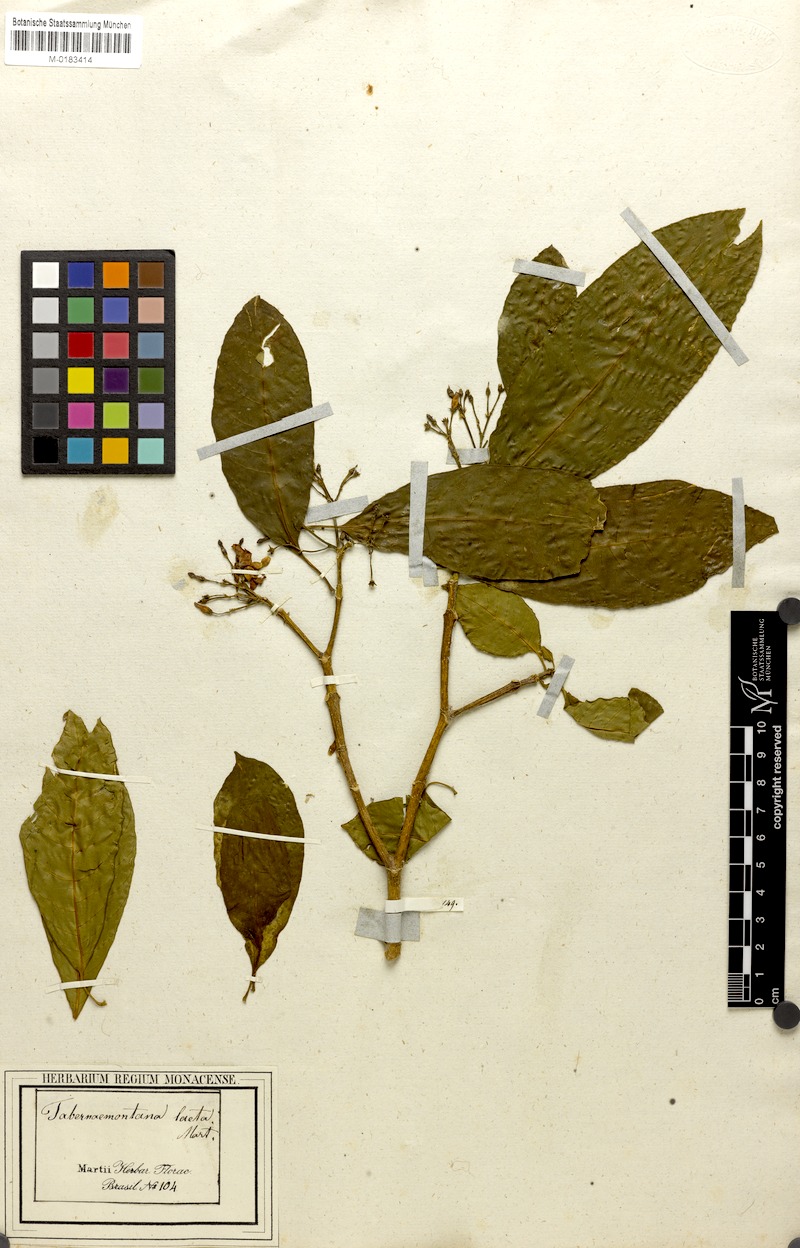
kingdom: Plantae
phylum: Tracheophyta
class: Magnoliopsida
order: Gentianales
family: Apocynaceae
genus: Tabernaemontana
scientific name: Tabernaemontana laeta
